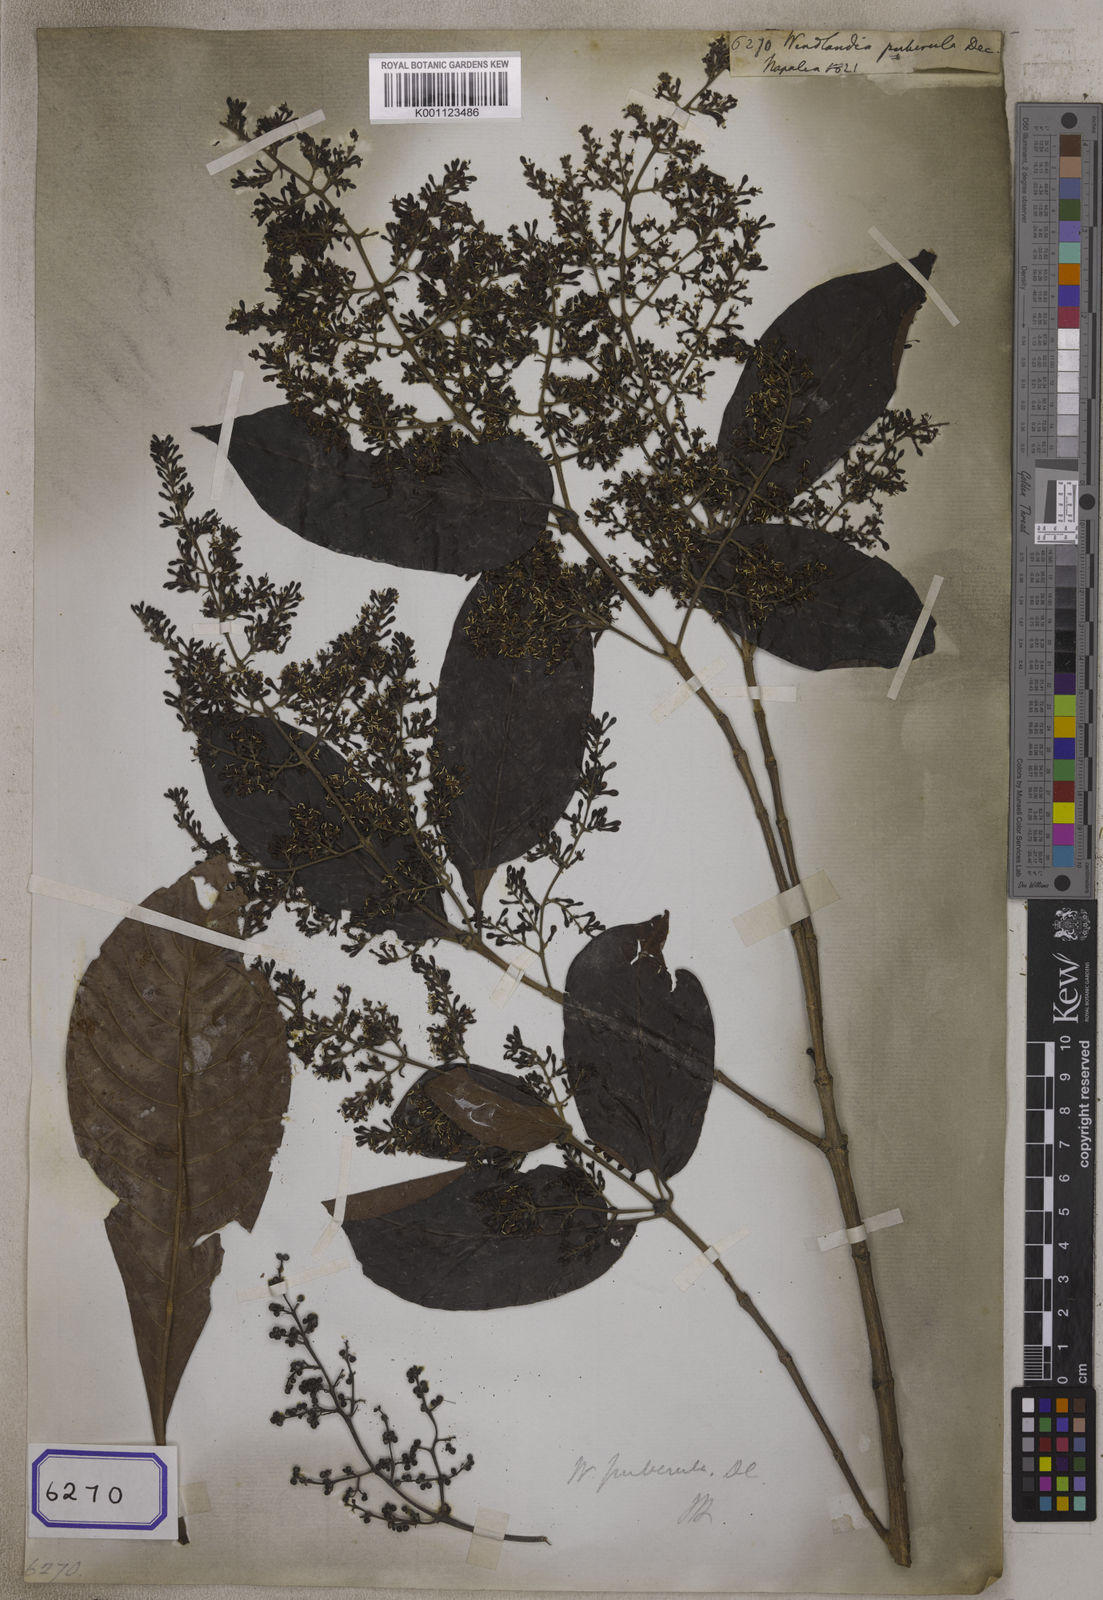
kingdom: Plantae
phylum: Tracheophyta
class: Magnoliopsida
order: Gentianales
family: Rubiaceae
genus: Wendlandia
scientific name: Wendlandia puberula
